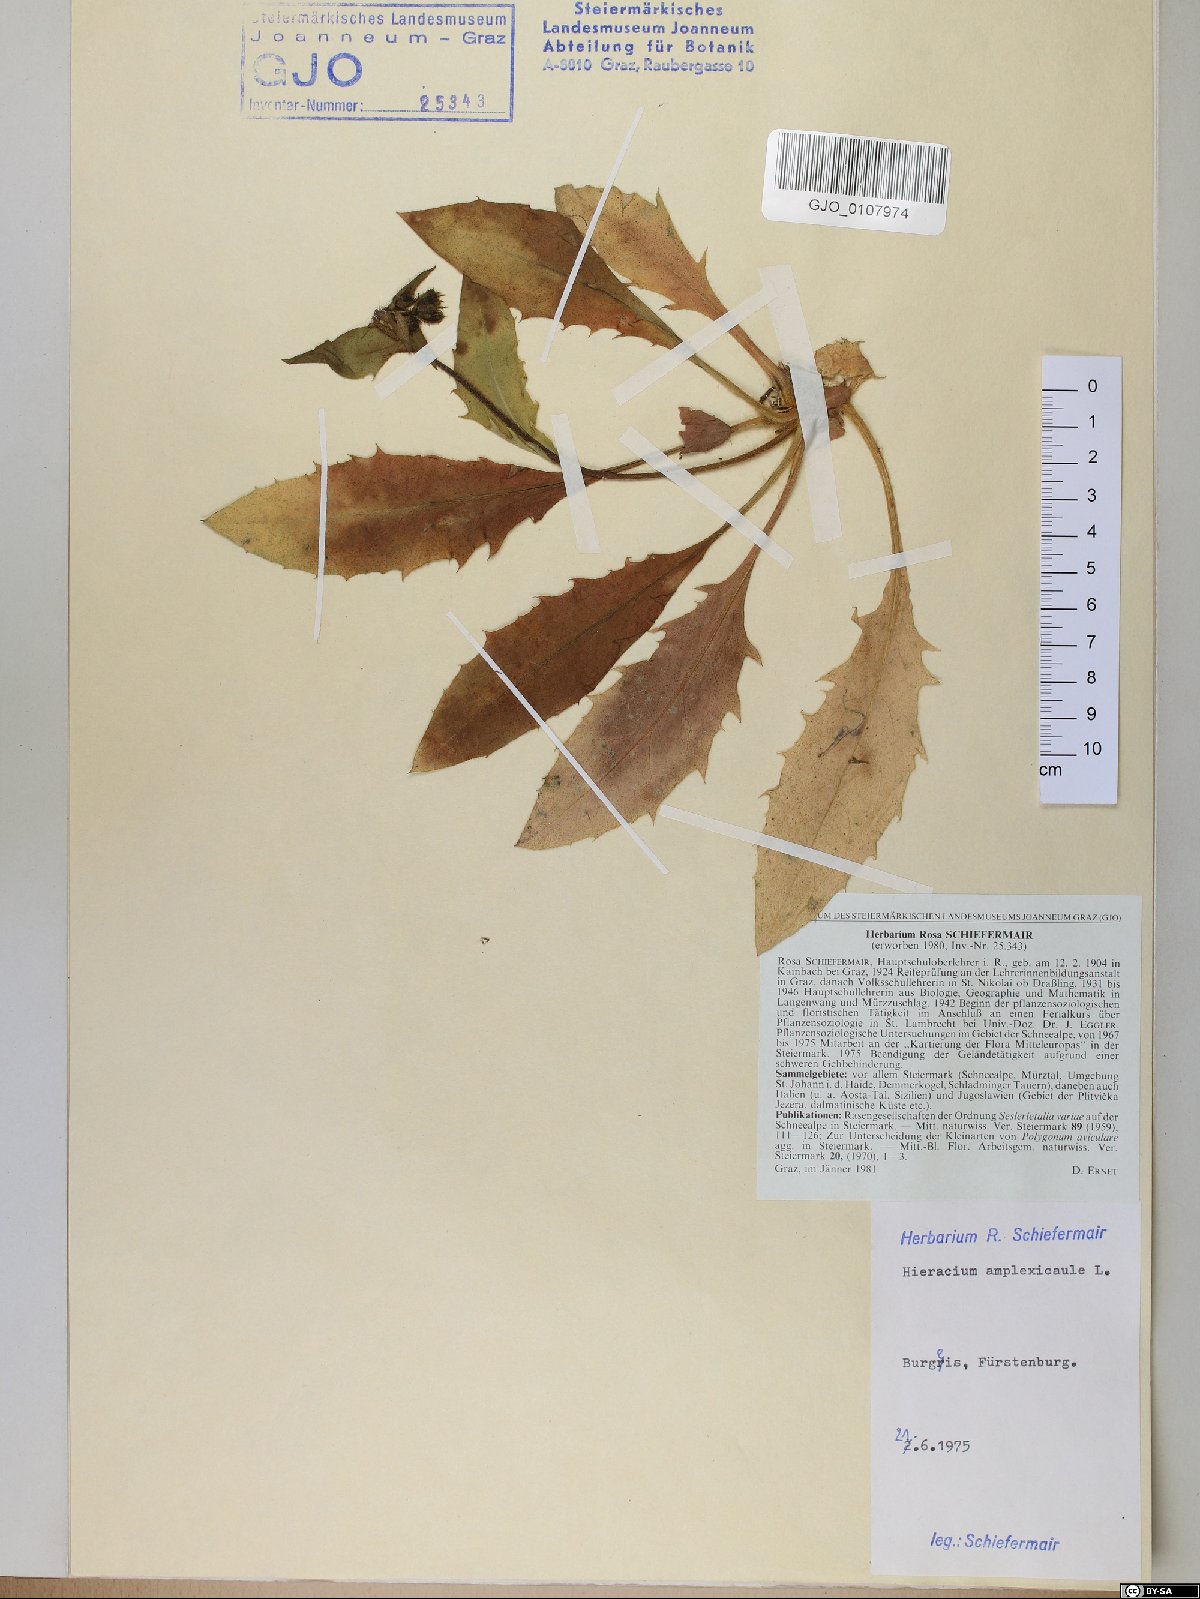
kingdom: Plantae
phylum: Tracheophyta
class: Magnoliopsida
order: Asterales
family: Asteraceae
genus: Hieracium
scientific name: Hieracium amplexicaule
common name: Sticky hawkweed
